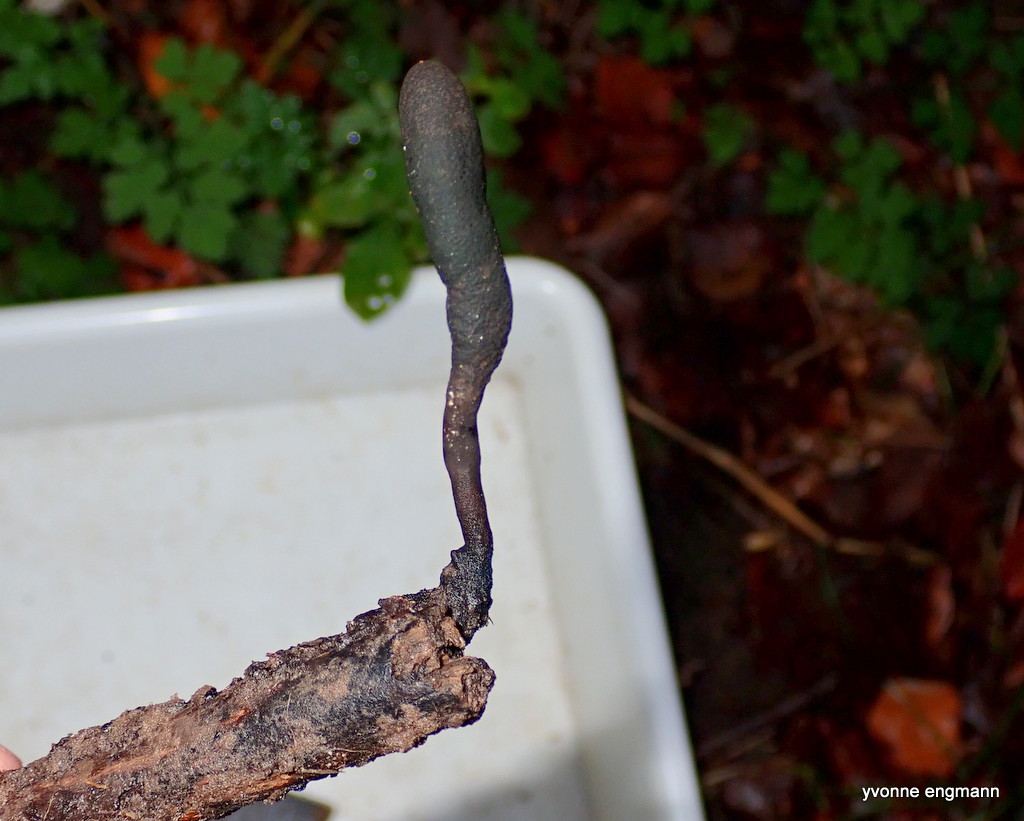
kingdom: Fungi
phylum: Ascomycota
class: Sordariomycetes
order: Xylariales
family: Xylariaceae
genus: Xylaria
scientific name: Xylaria longipes
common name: slank stødsvamp
